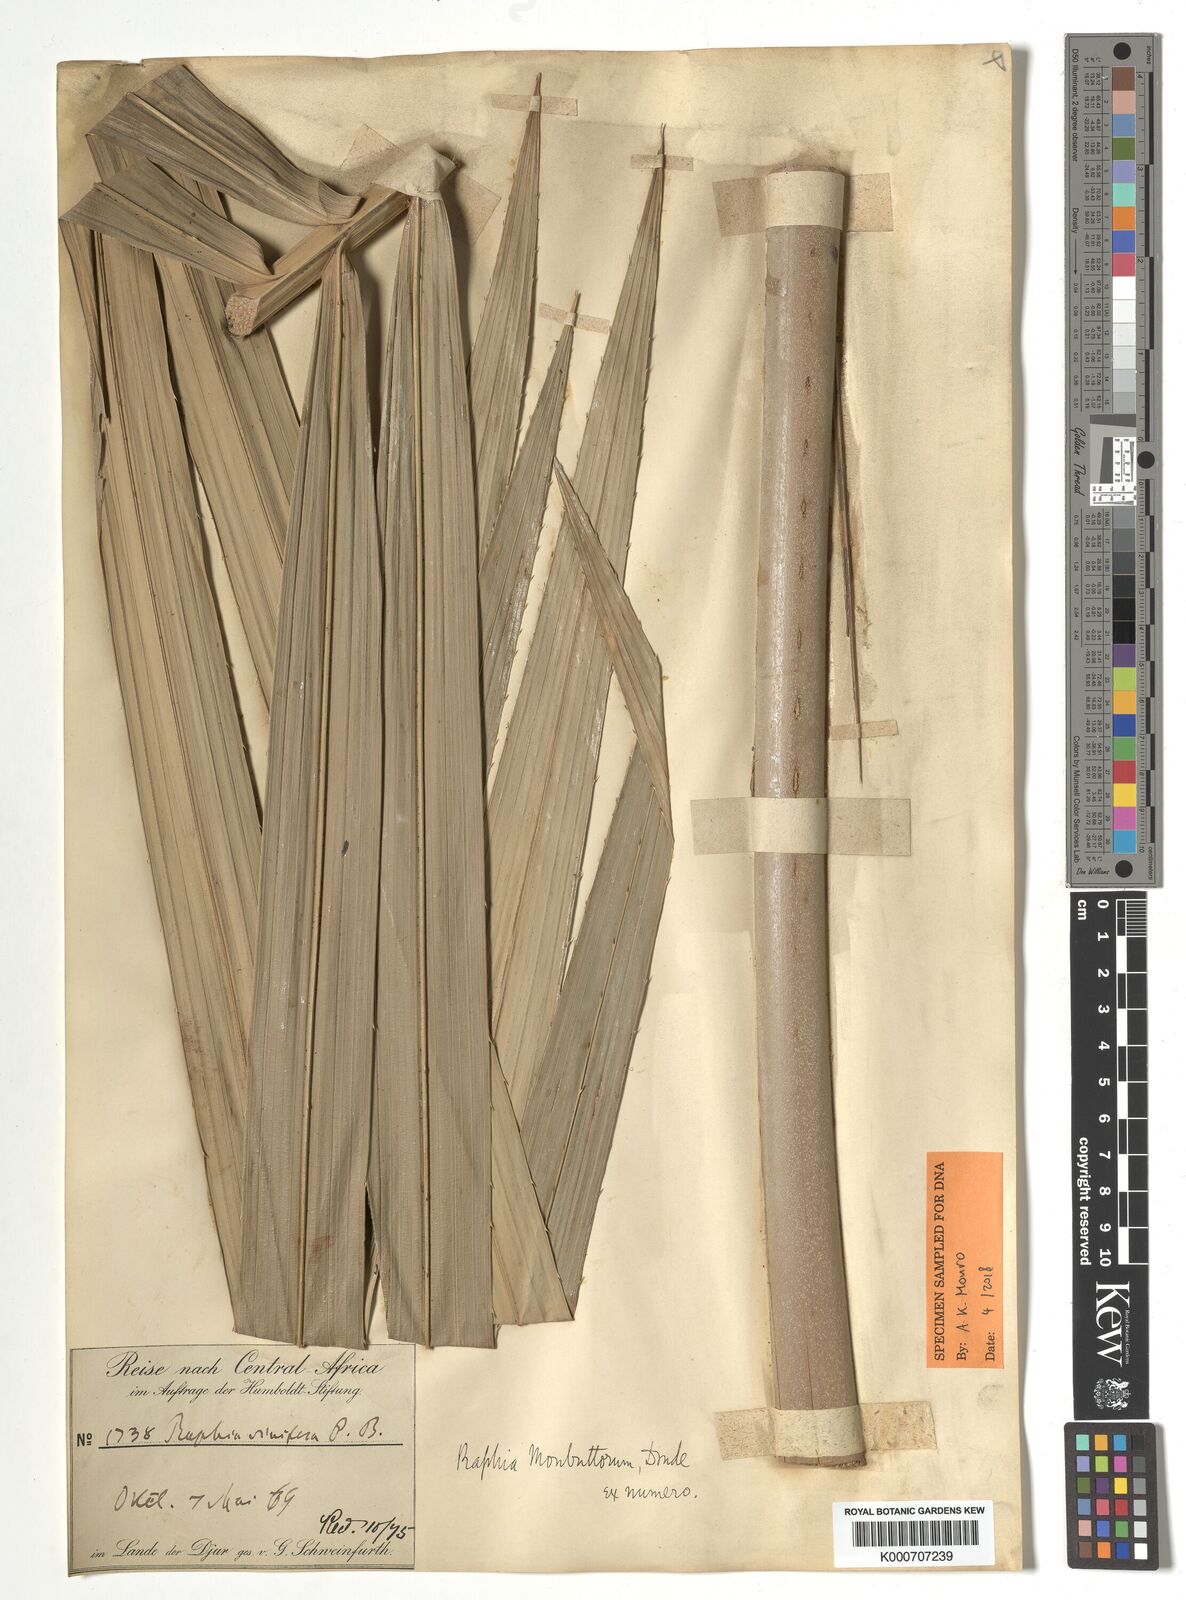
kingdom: Plantae
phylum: Tracheophyta
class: Liliopsida
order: Arecales
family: Arecaceae
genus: Raphia
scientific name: Raphia monbuttorum
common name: Raphia palm
